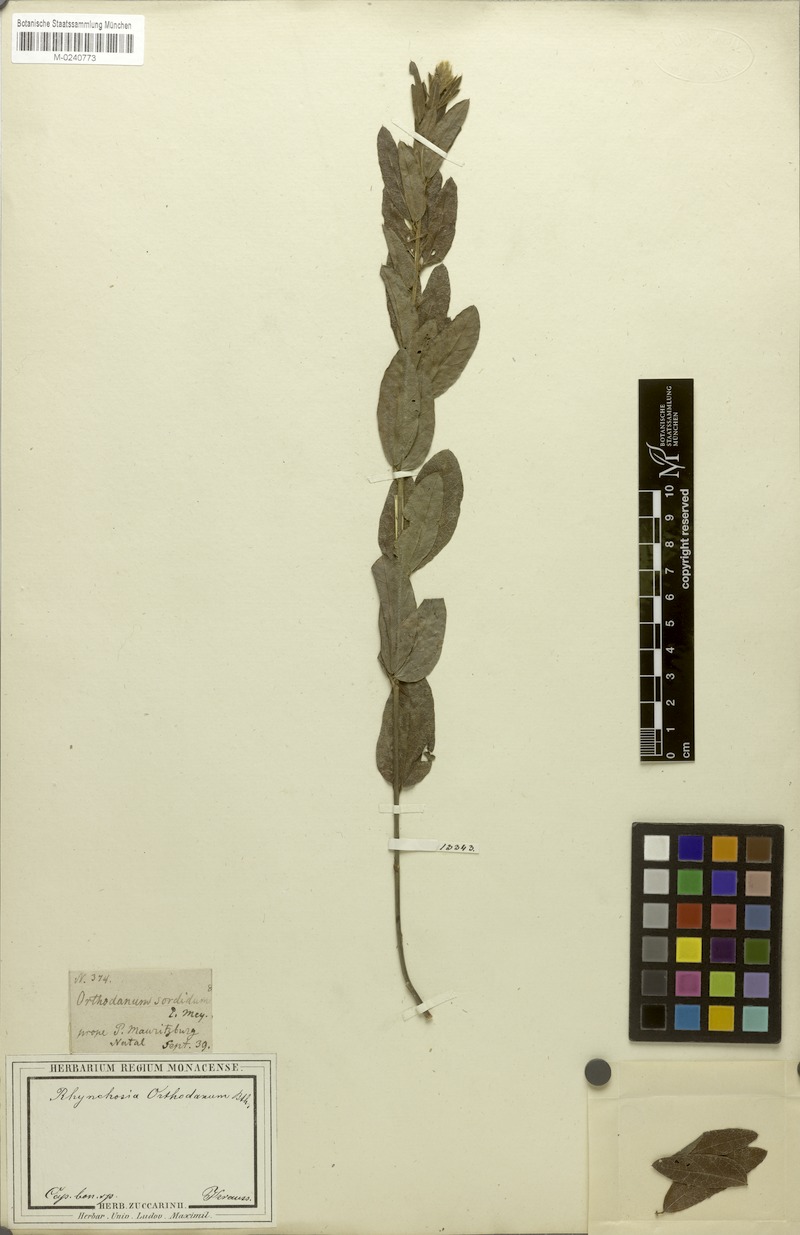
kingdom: Plantae
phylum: Tracheophyta
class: Magnoliopsida
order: Fabales
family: Fabaceae
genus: Rhynchosia
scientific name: Rhynchosia sordida
